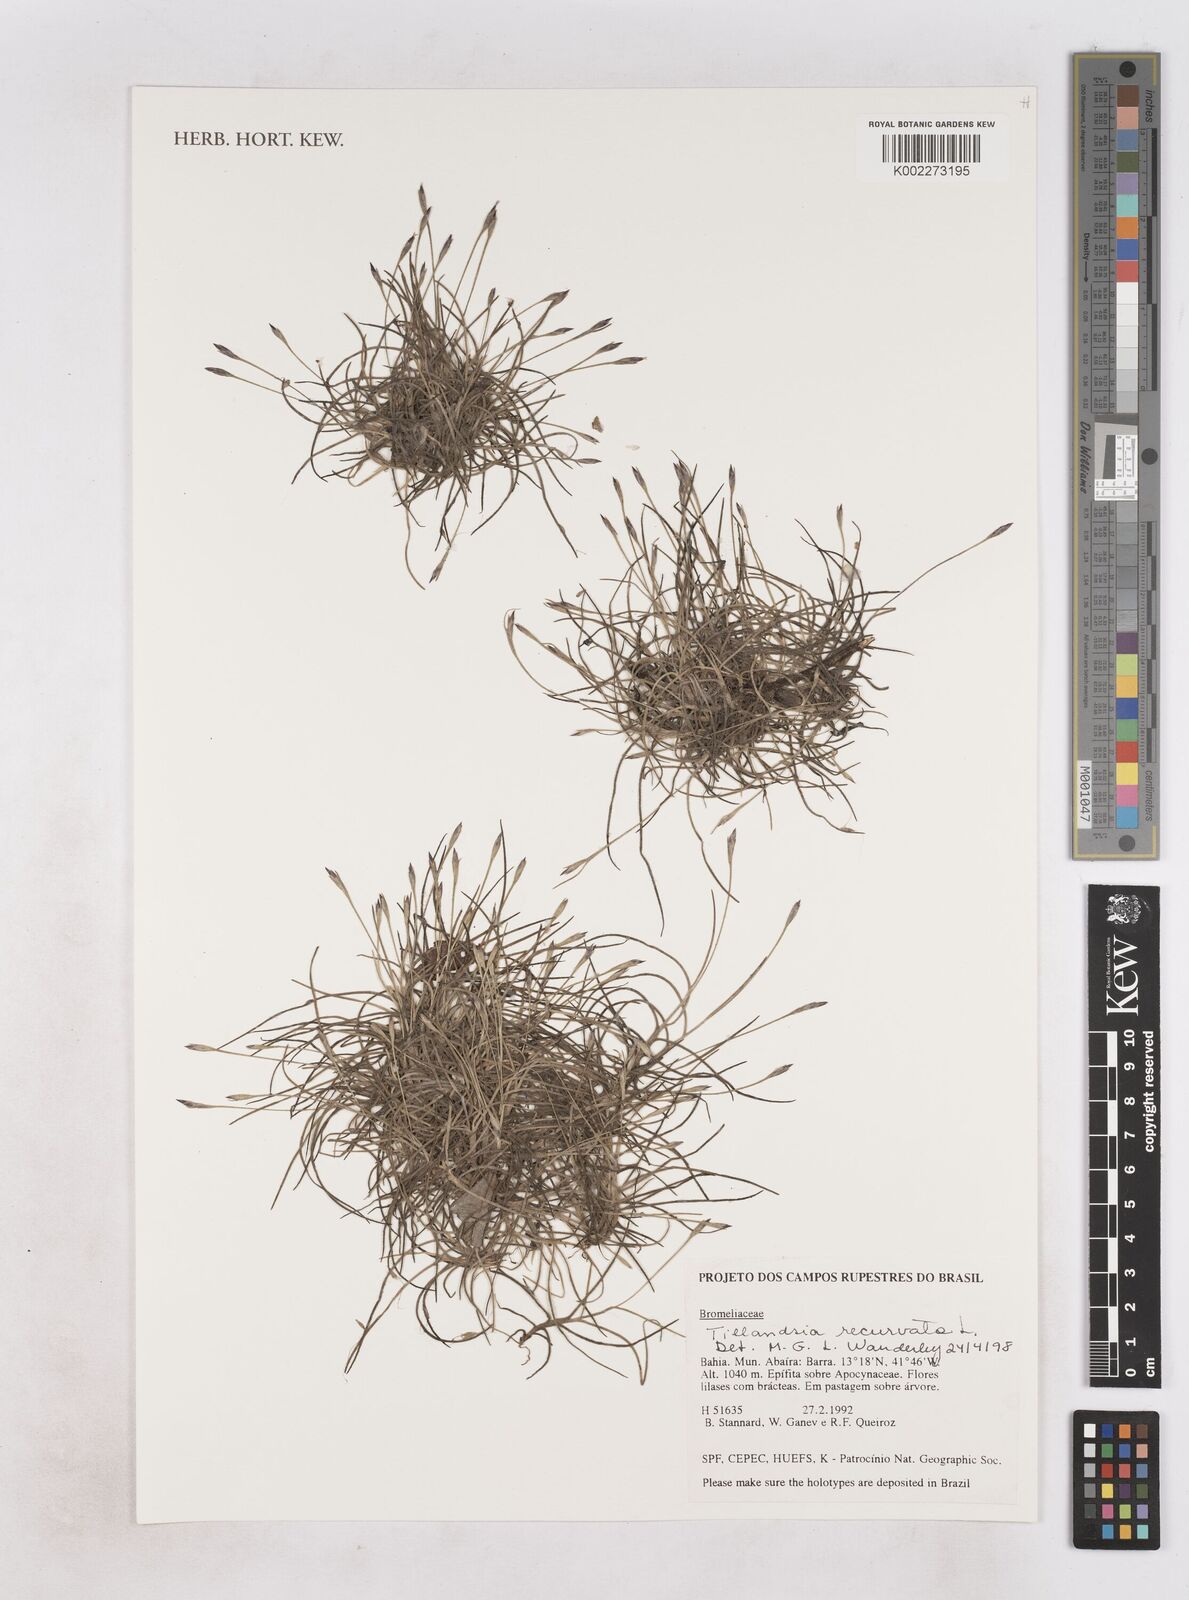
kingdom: Plantae
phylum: Tracheophyta
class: Liliopsida
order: Poales
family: Bromeliaceae
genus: Tillandsia
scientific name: Tillandsia recurvata
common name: Small ballmoss
